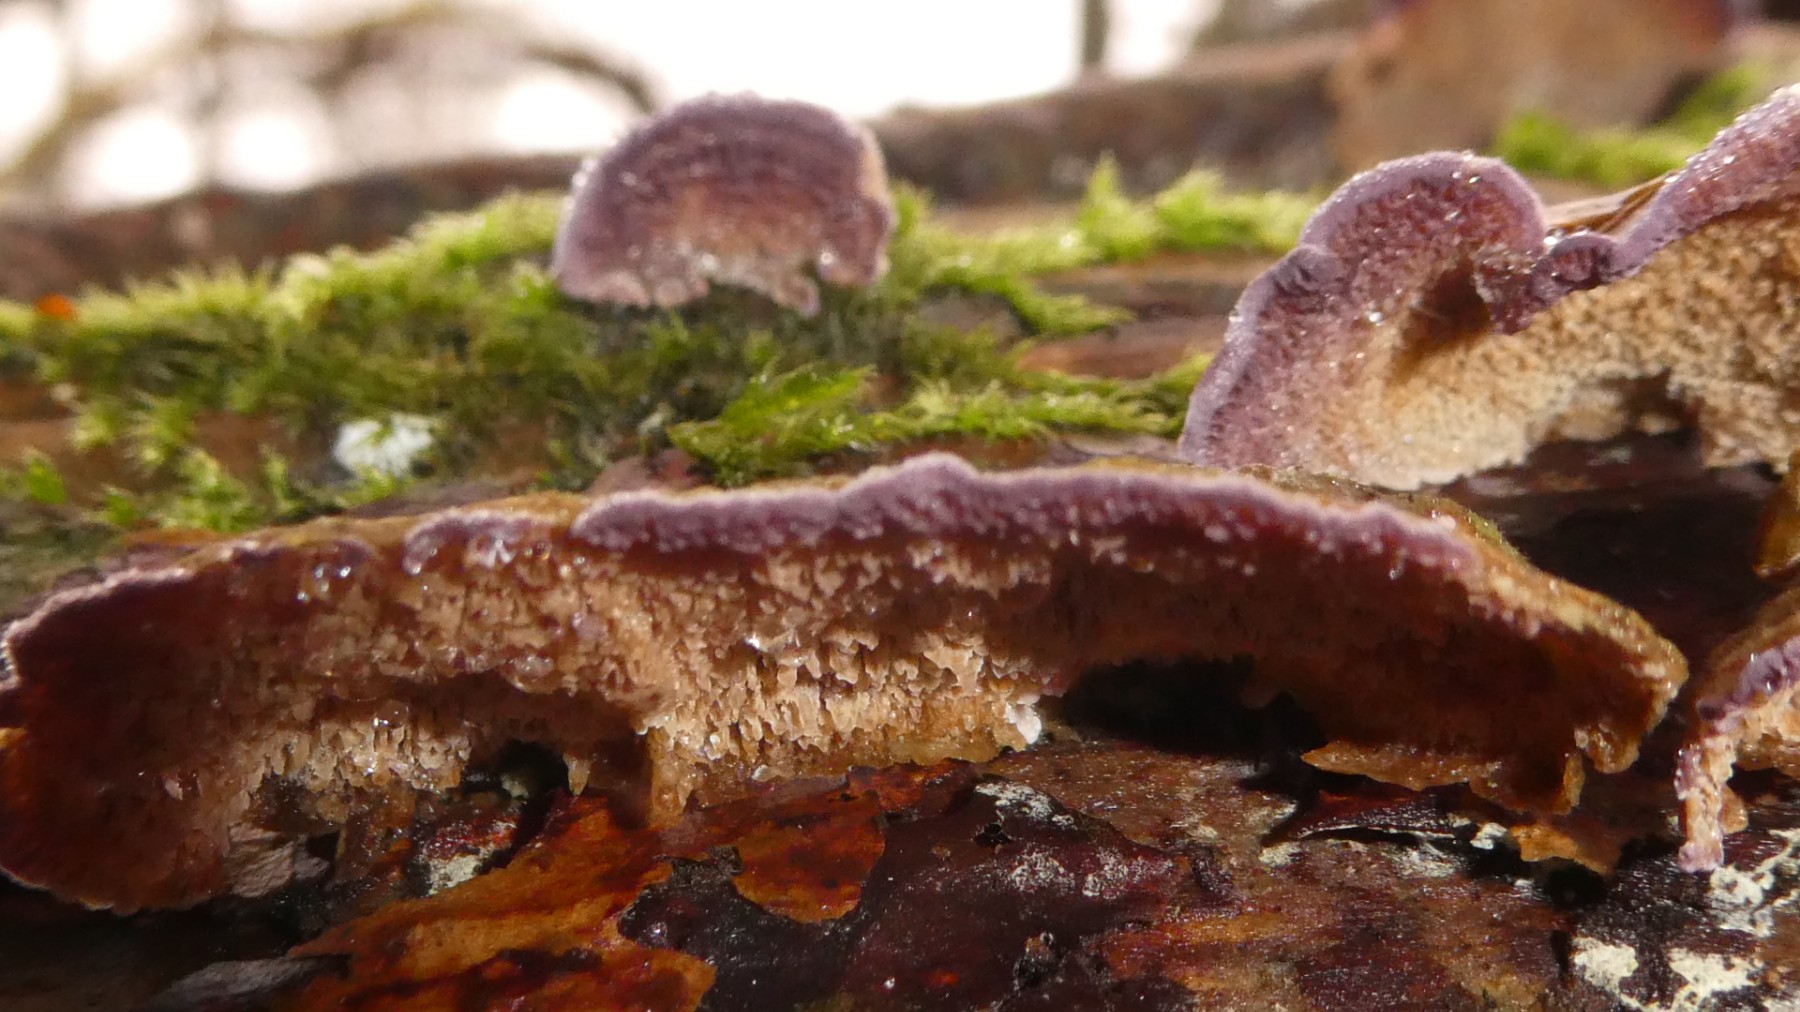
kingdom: Fungi
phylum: Basidiomycota
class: Agaricomycetes
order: Hymenochaetales
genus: Trichaptum
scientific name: Trichaptum abietinum
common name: almindelig violporesvamp
